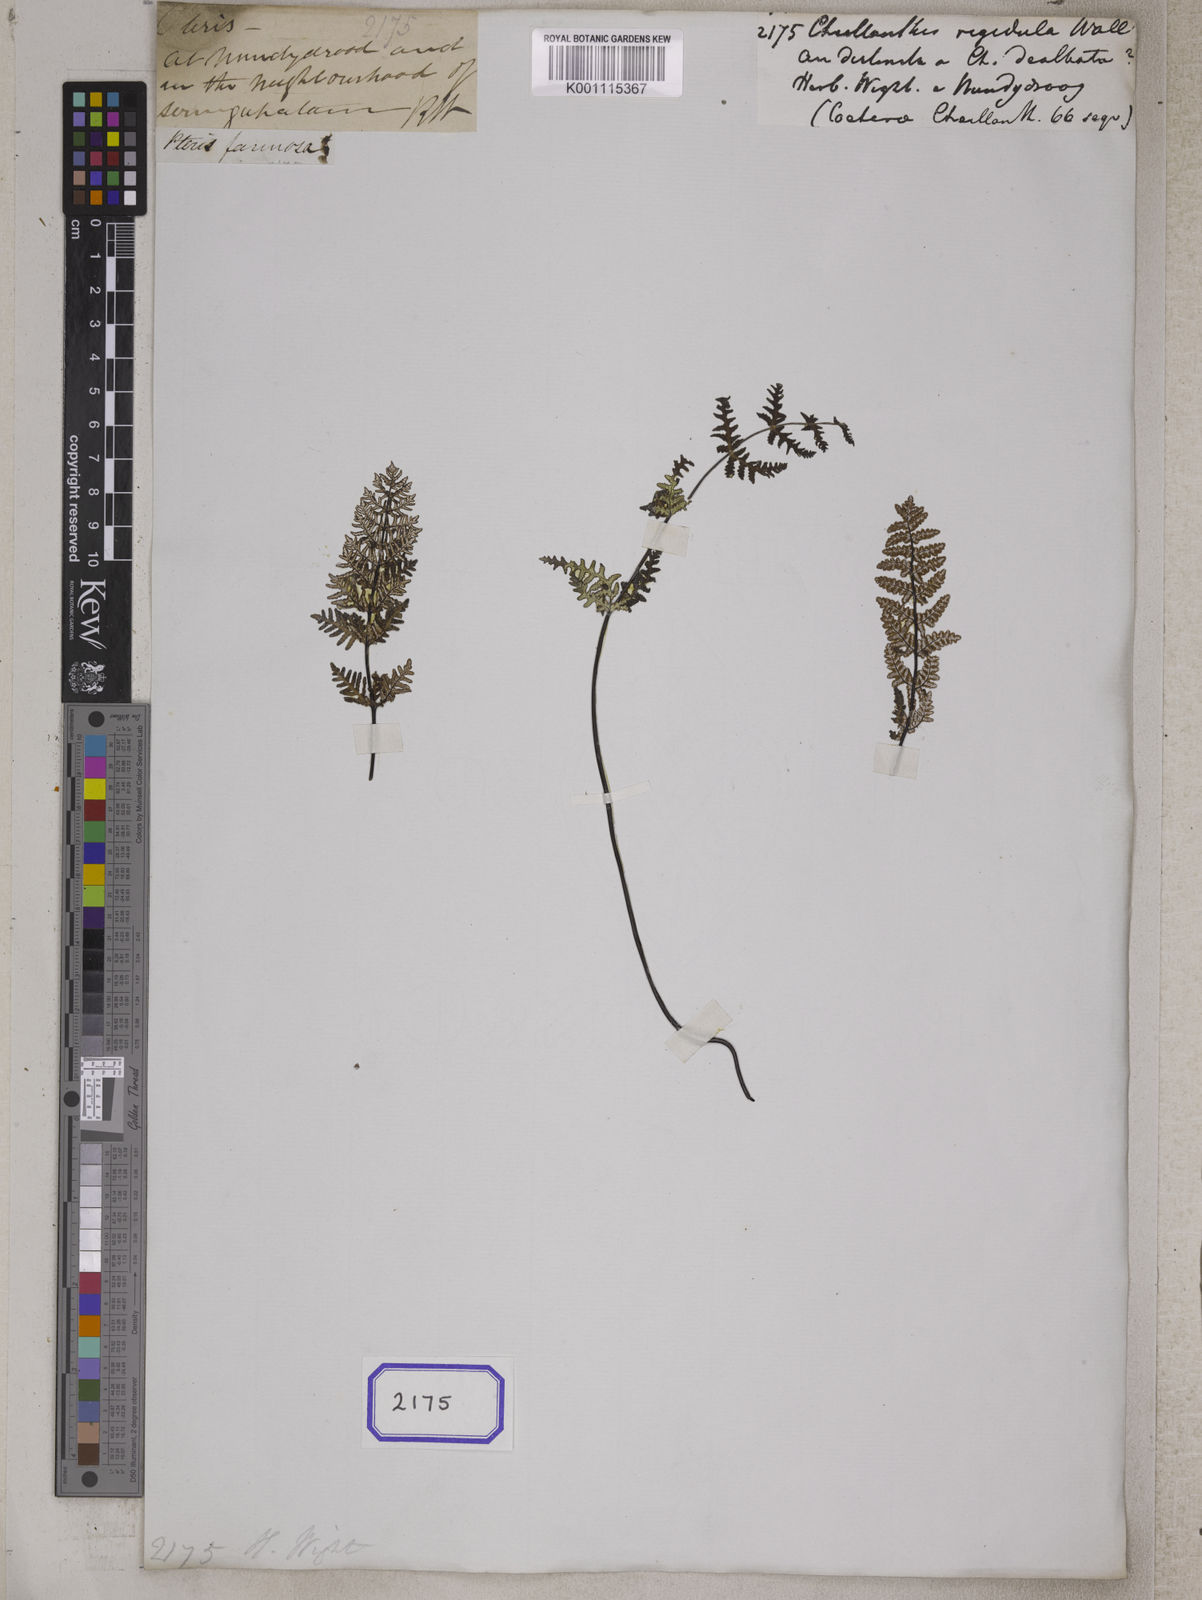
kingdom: Plantae
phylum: Tracheophyta
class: Polypodiopsida
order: Polypodiales
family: Pteridaceae
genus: Aleuritopteris
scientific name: Aleuritopteris farinosa
